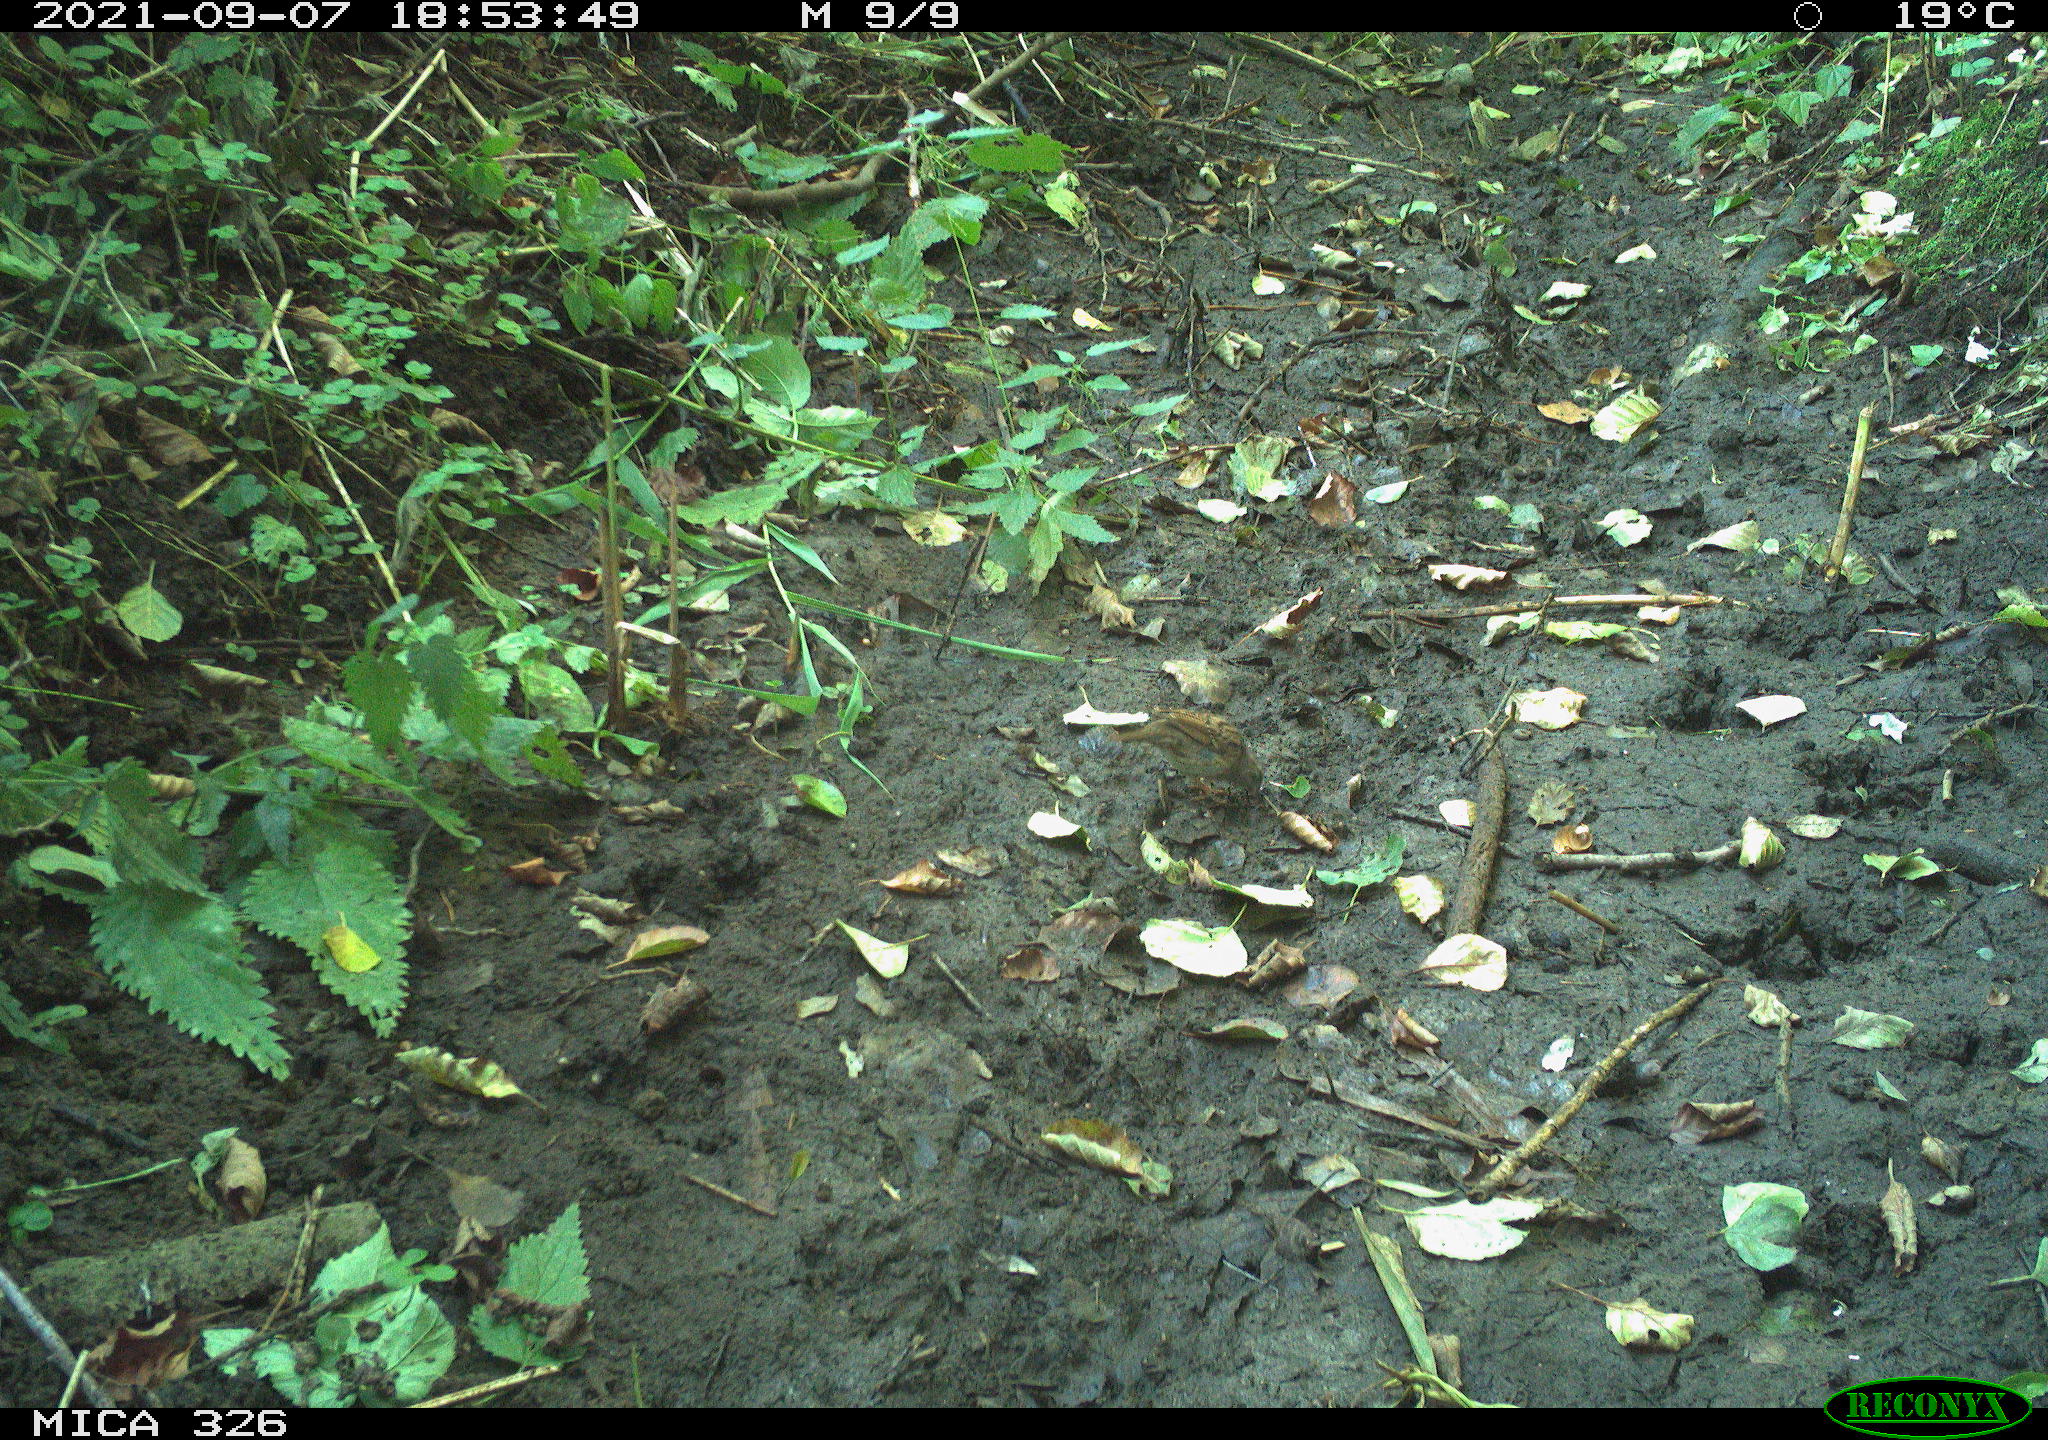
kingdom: Animalia
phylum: Chordata
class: Aves
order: Passeriformes
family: Prunellidae
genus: Prunella
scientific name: Prunella modularis
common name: Dunnock
